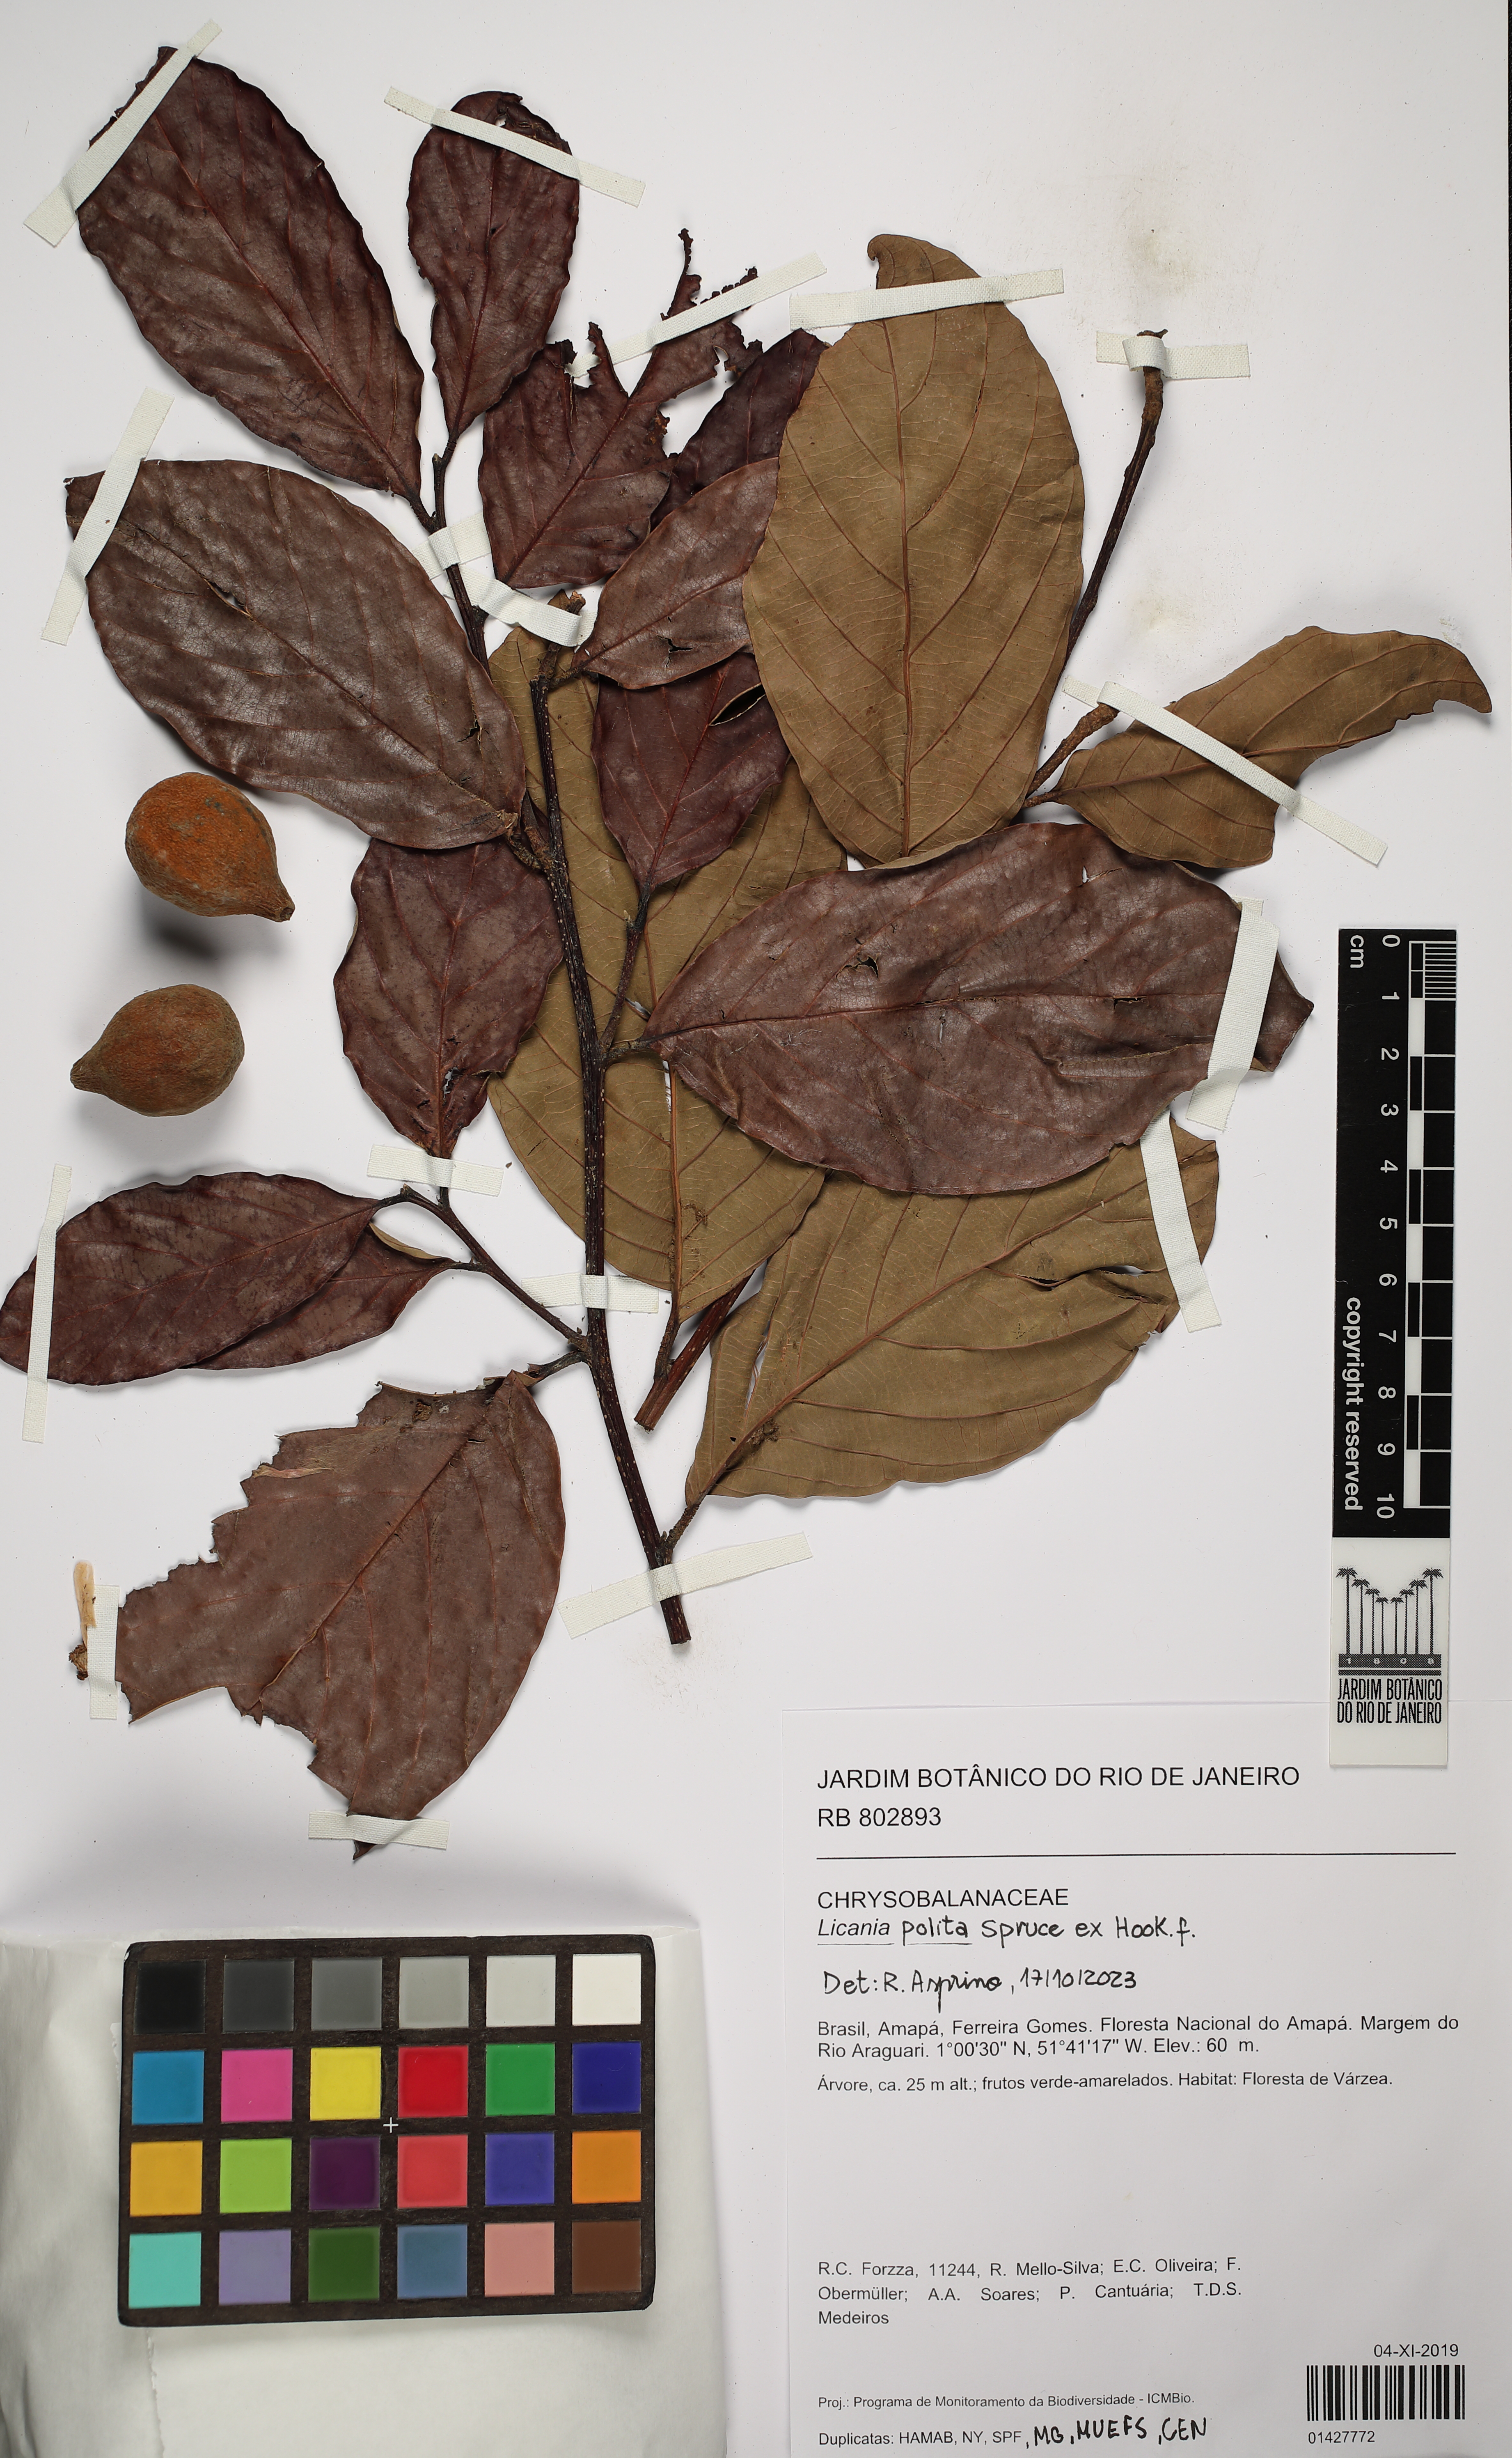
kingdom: Plantae
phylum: Tracheophyta
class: Magnoliopsida
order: Malpighiales
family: Chrysobalanaceae
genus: Licania
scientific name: Licania polita
